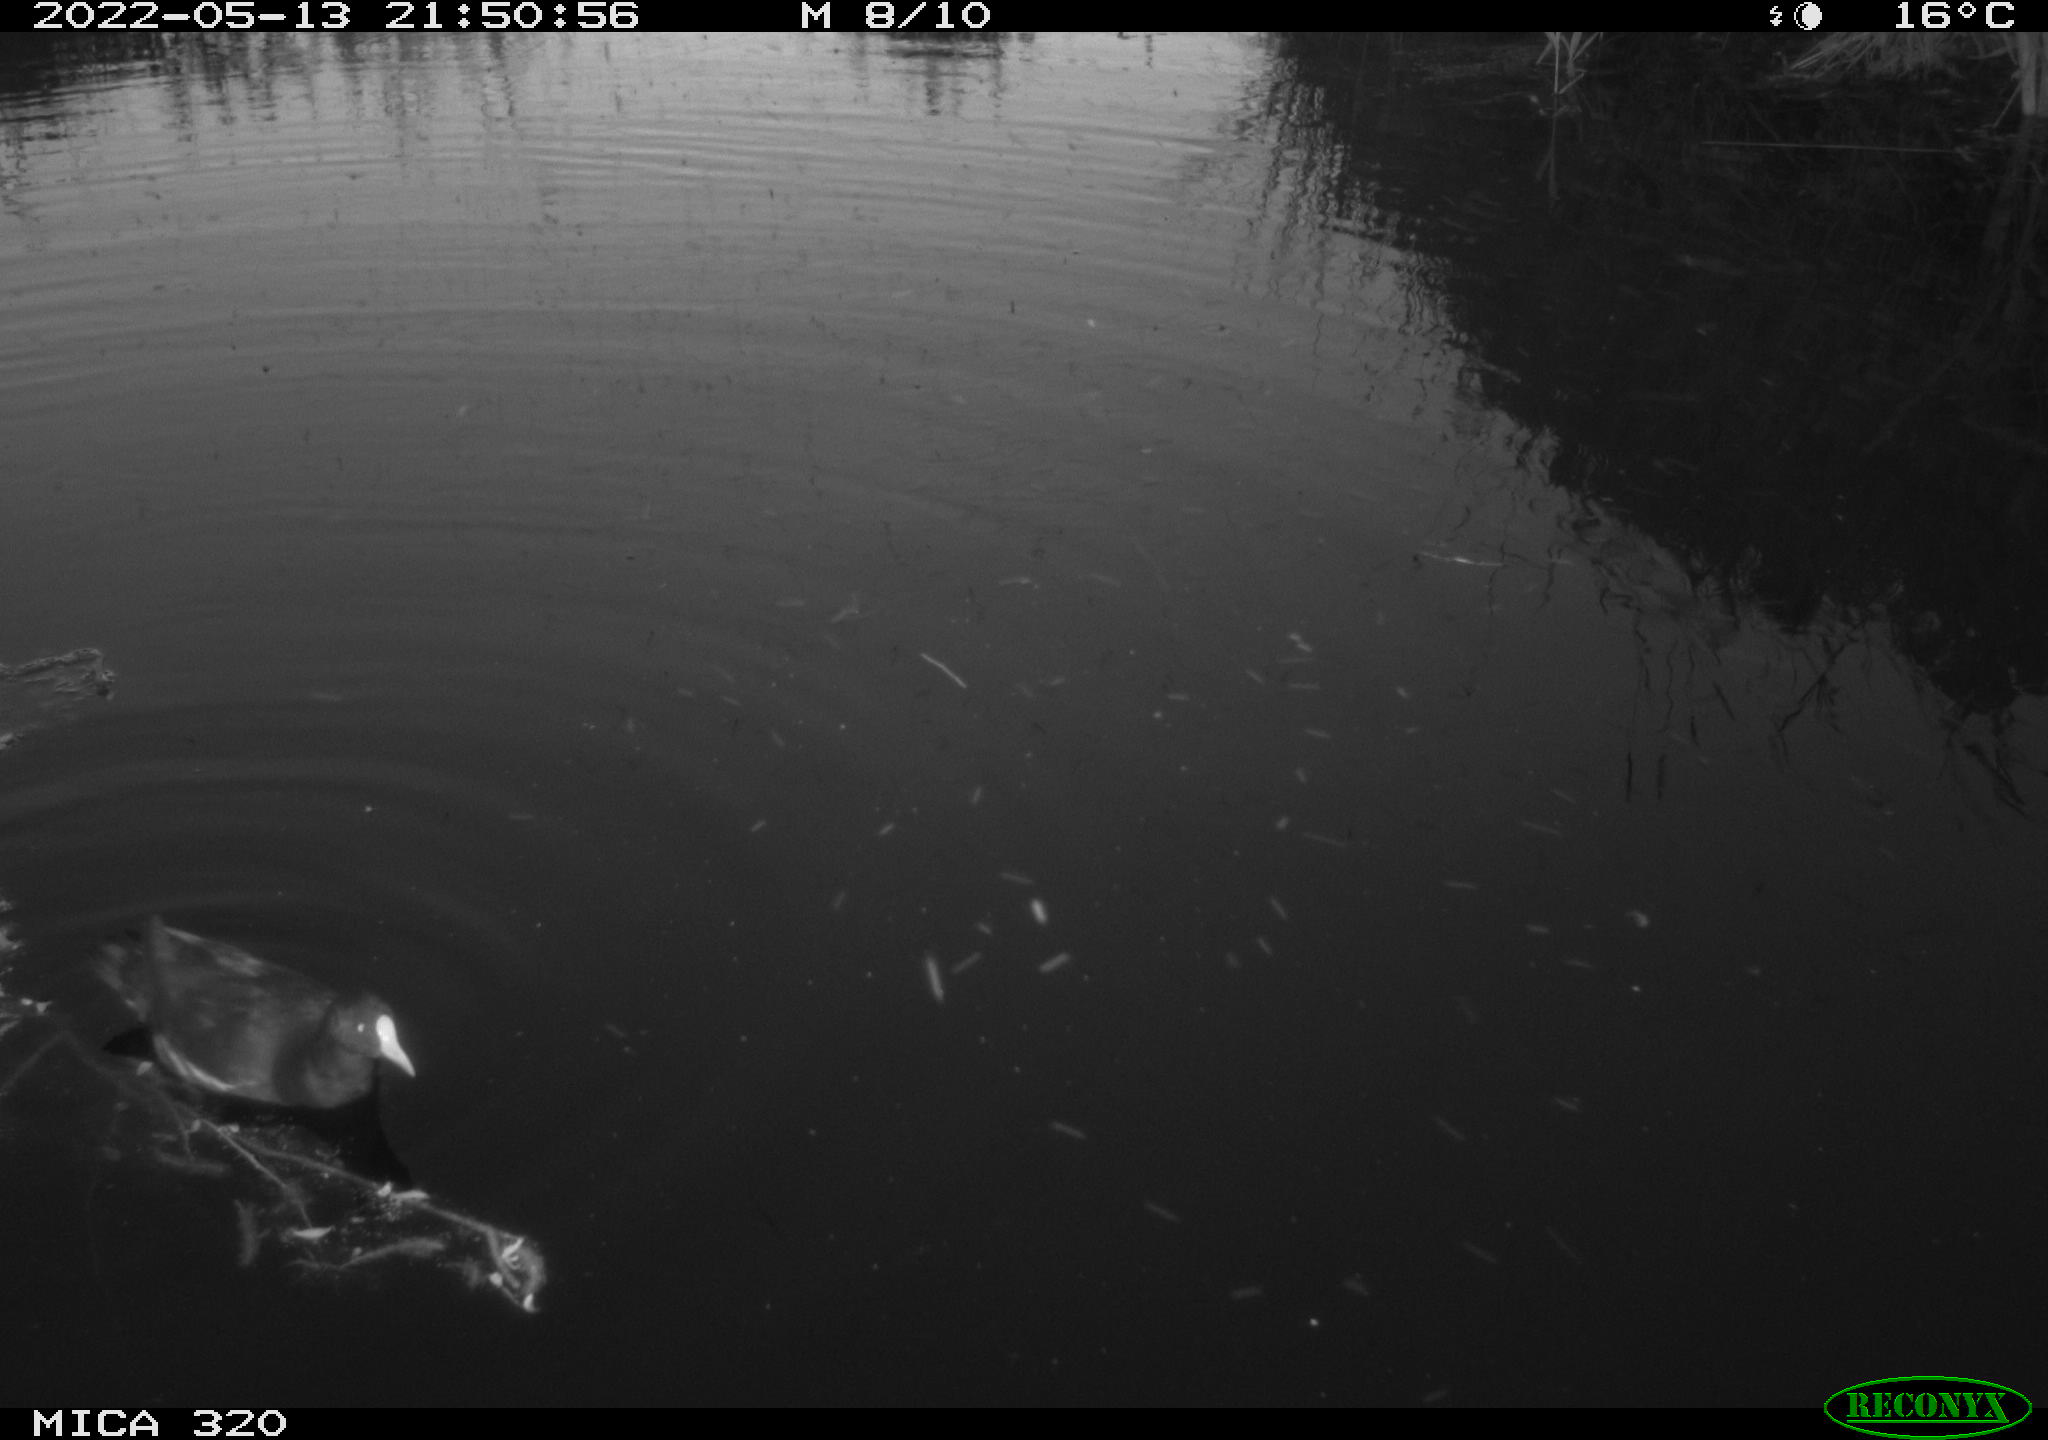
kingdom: Animalia
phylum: Chordata
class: Aves
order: Gruiformes
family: Rallidae
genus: Gallinula
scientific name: Gallinula chloropus
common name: Common moorhen
